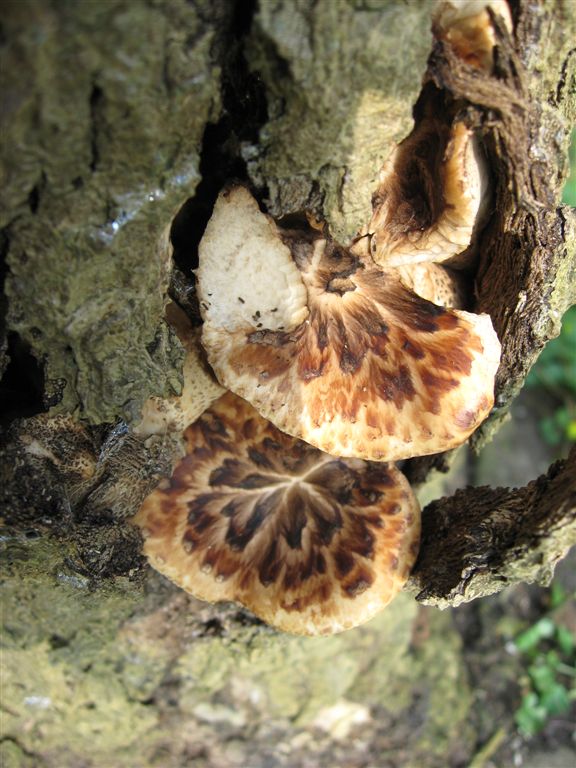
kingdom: Fungi
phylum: Basidiomycota
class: Agaricomycetes
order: Polyporales
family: Polyporaceae
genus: Cerioporus
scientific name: Cerioporus squamosus
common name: skællet stilkporesvamp
